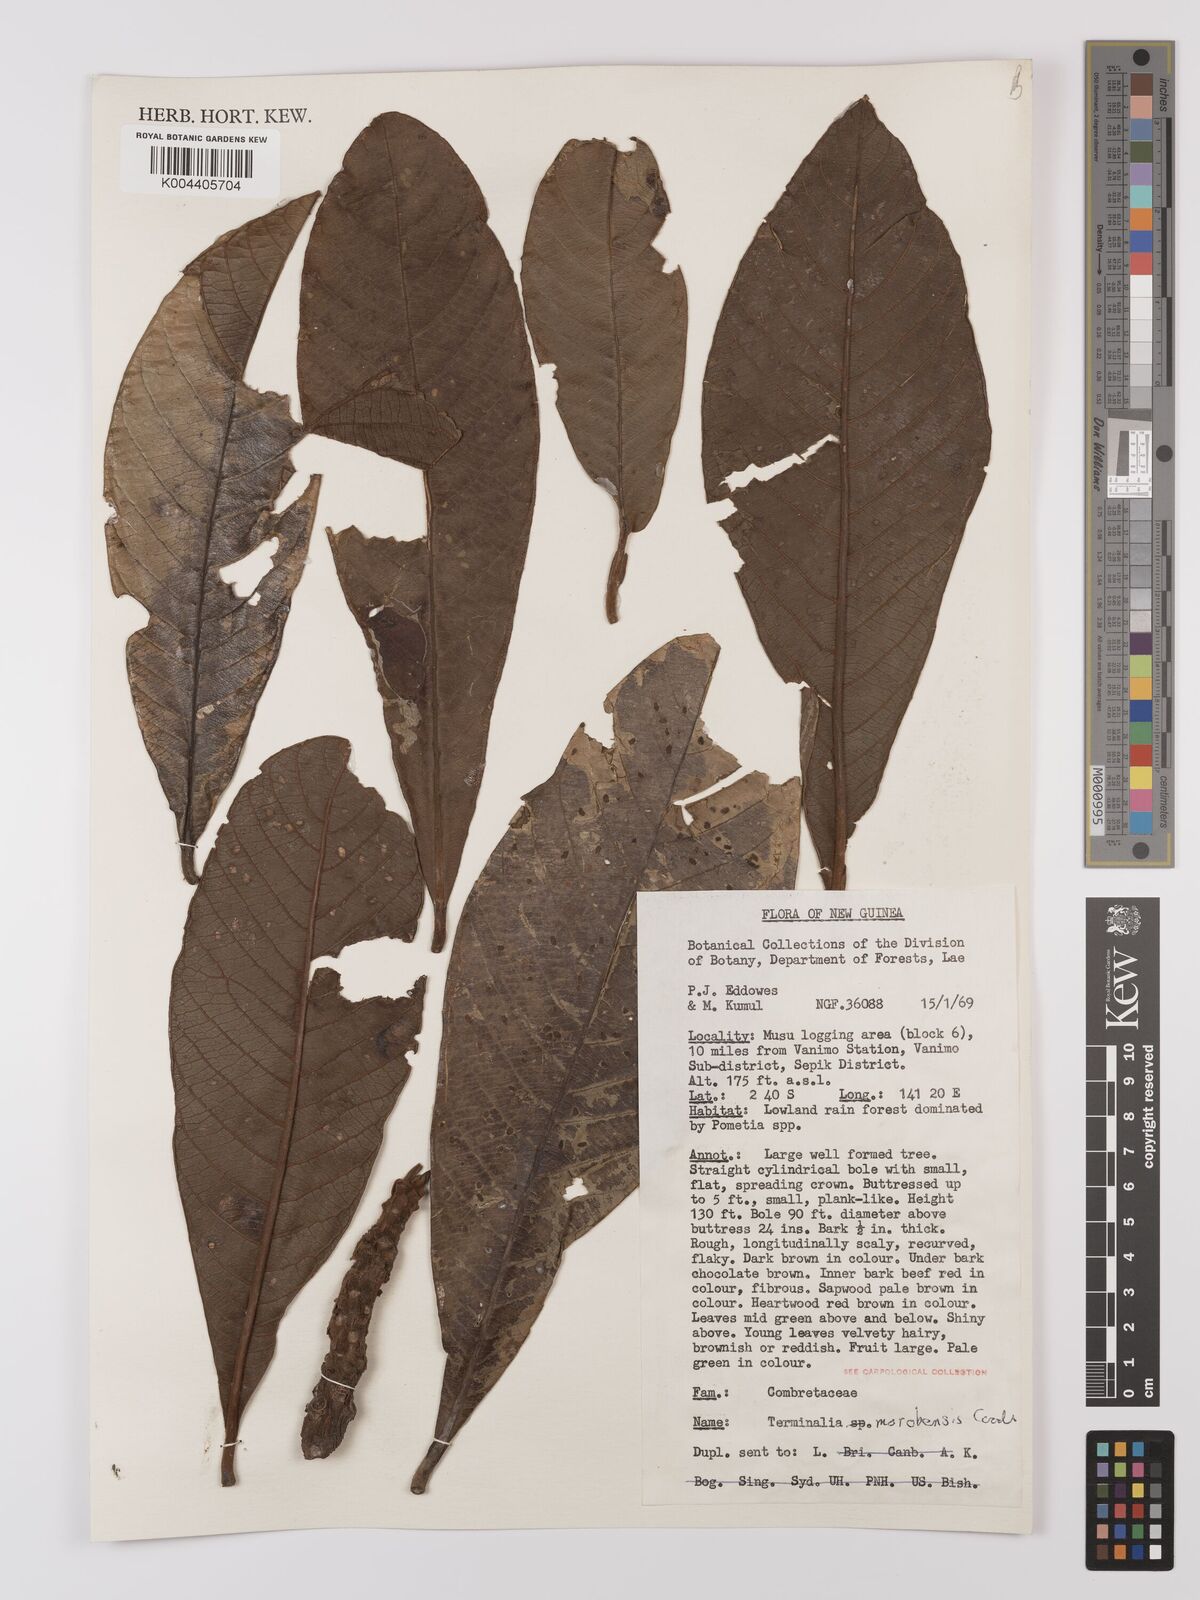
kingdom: Plantae
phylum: Tracheophyta
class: Magnoliopsida
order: Myrtales
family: Combretaceae
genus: Terminalia
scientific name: Terminalia morobensis
